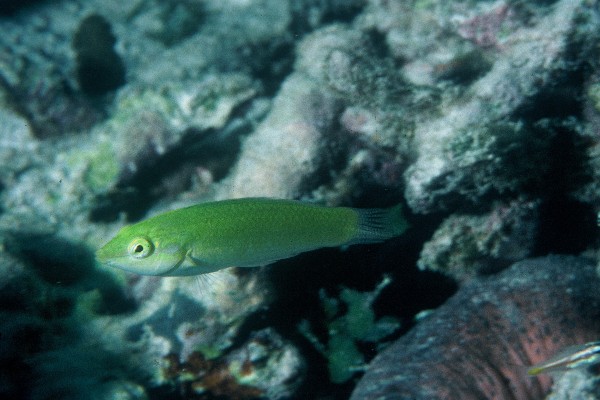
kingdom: Animalia
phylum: Chordata
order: Perciformes
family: Labridae
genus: Halichoeres
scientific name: Halichoeres chloropterus
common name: Pastel-green wrasse
